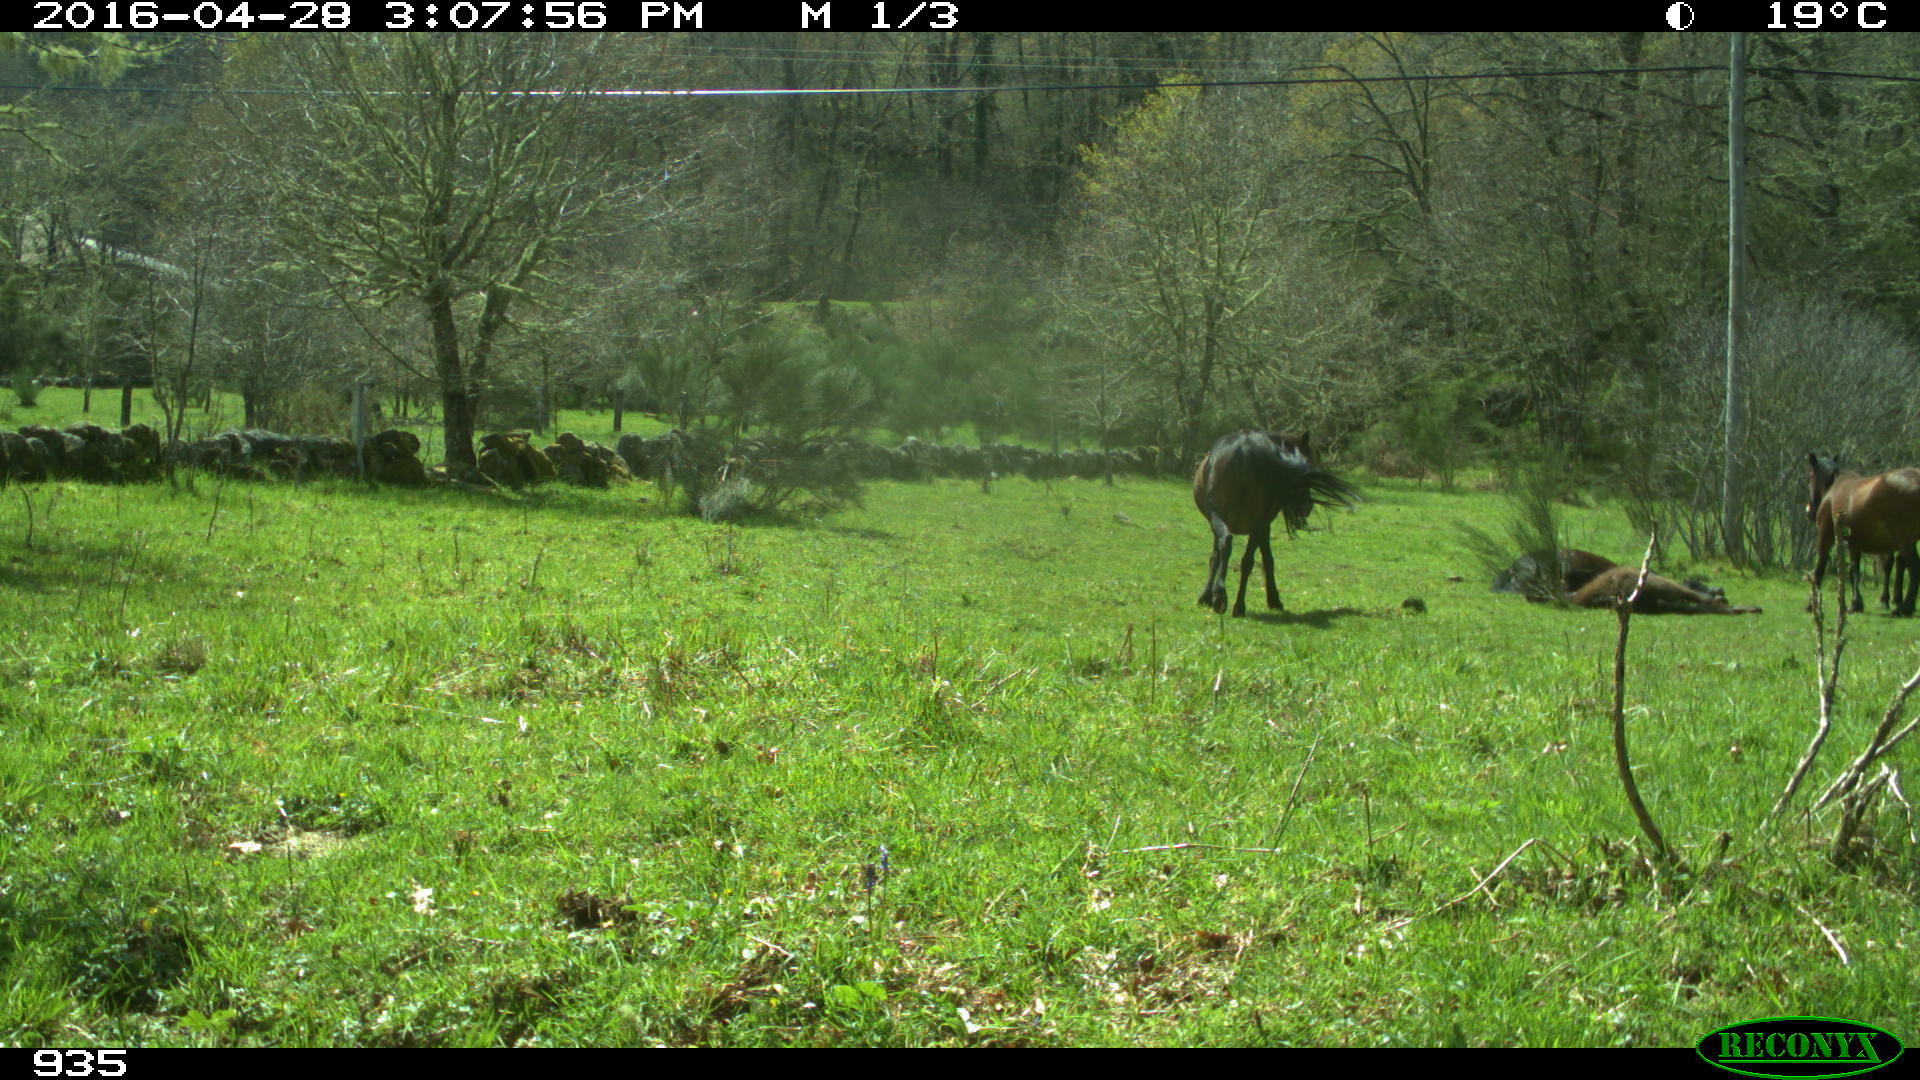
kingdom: Animalia
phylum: Chordata
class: Mammalia
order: Perissodactyla
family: Equidae
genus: Equus
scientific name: Equus caballus
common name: Horse
